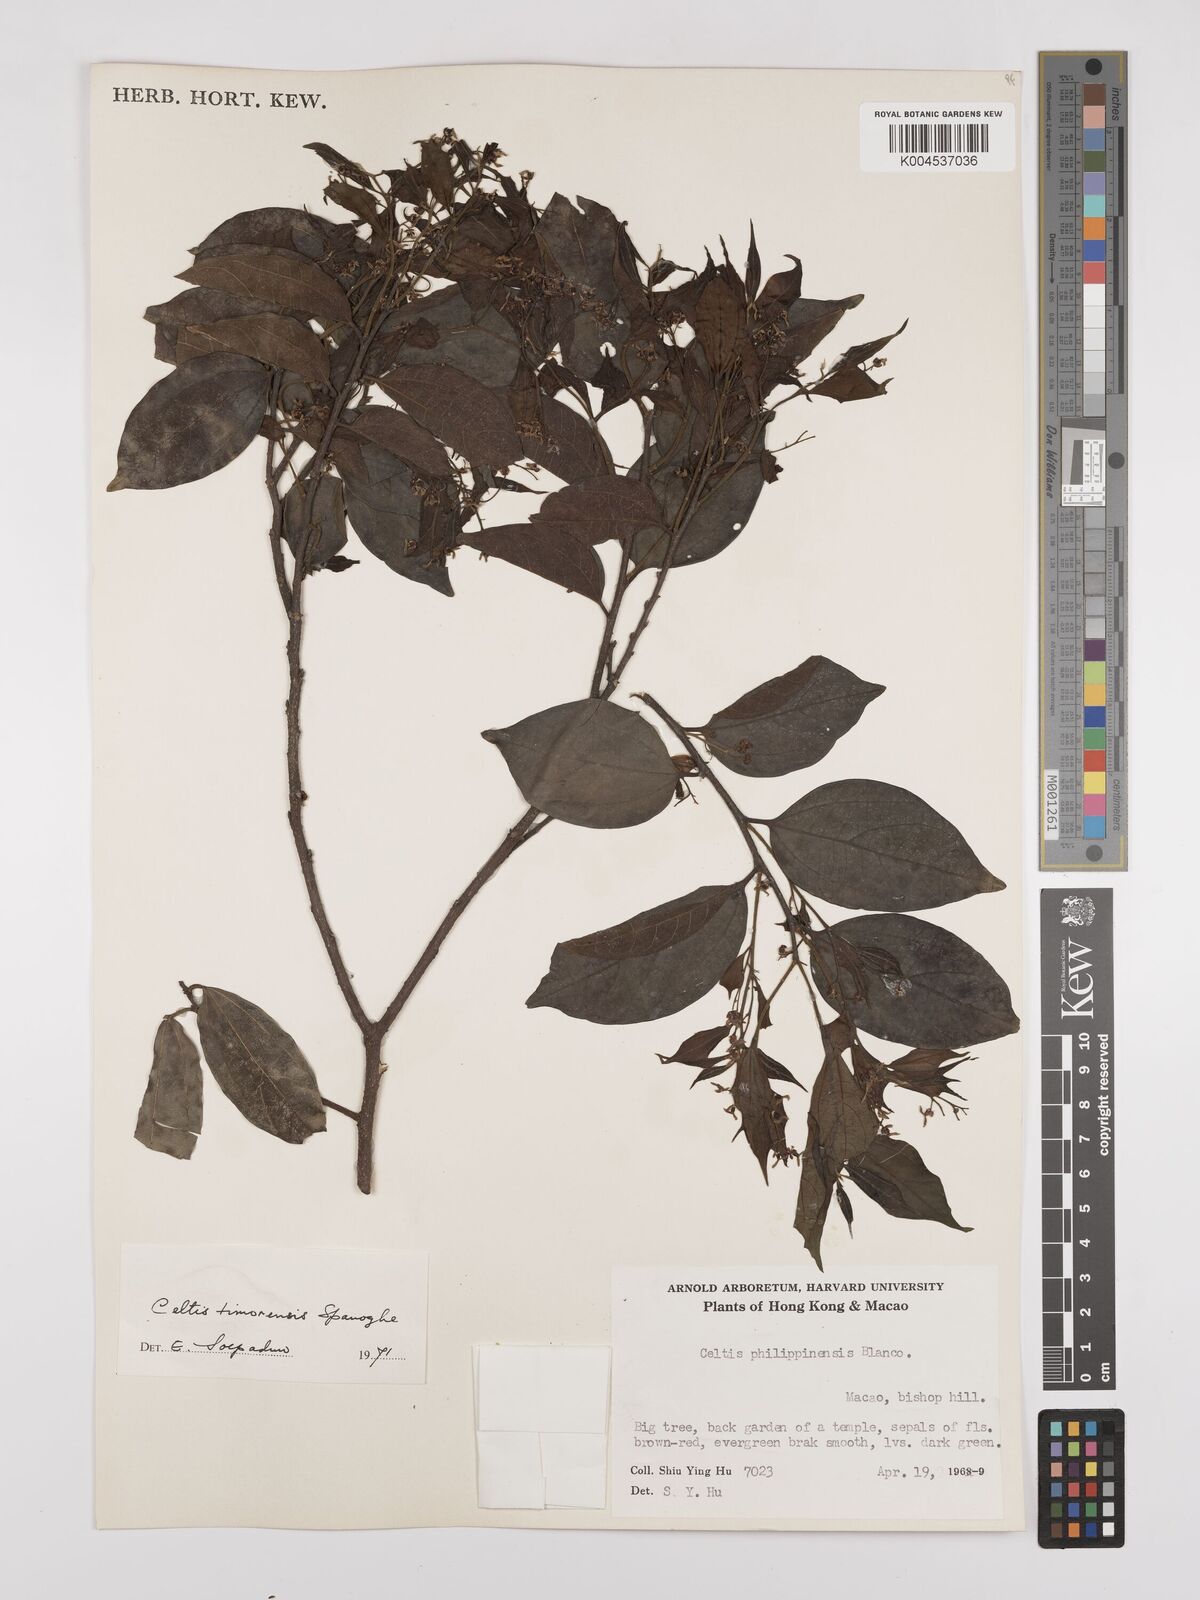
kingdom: Plantae
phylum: Tracheophyta
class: Magnoliopsida
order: Rosales
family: Cannabaceae
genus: Celtis
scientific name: Celtis timorensis
